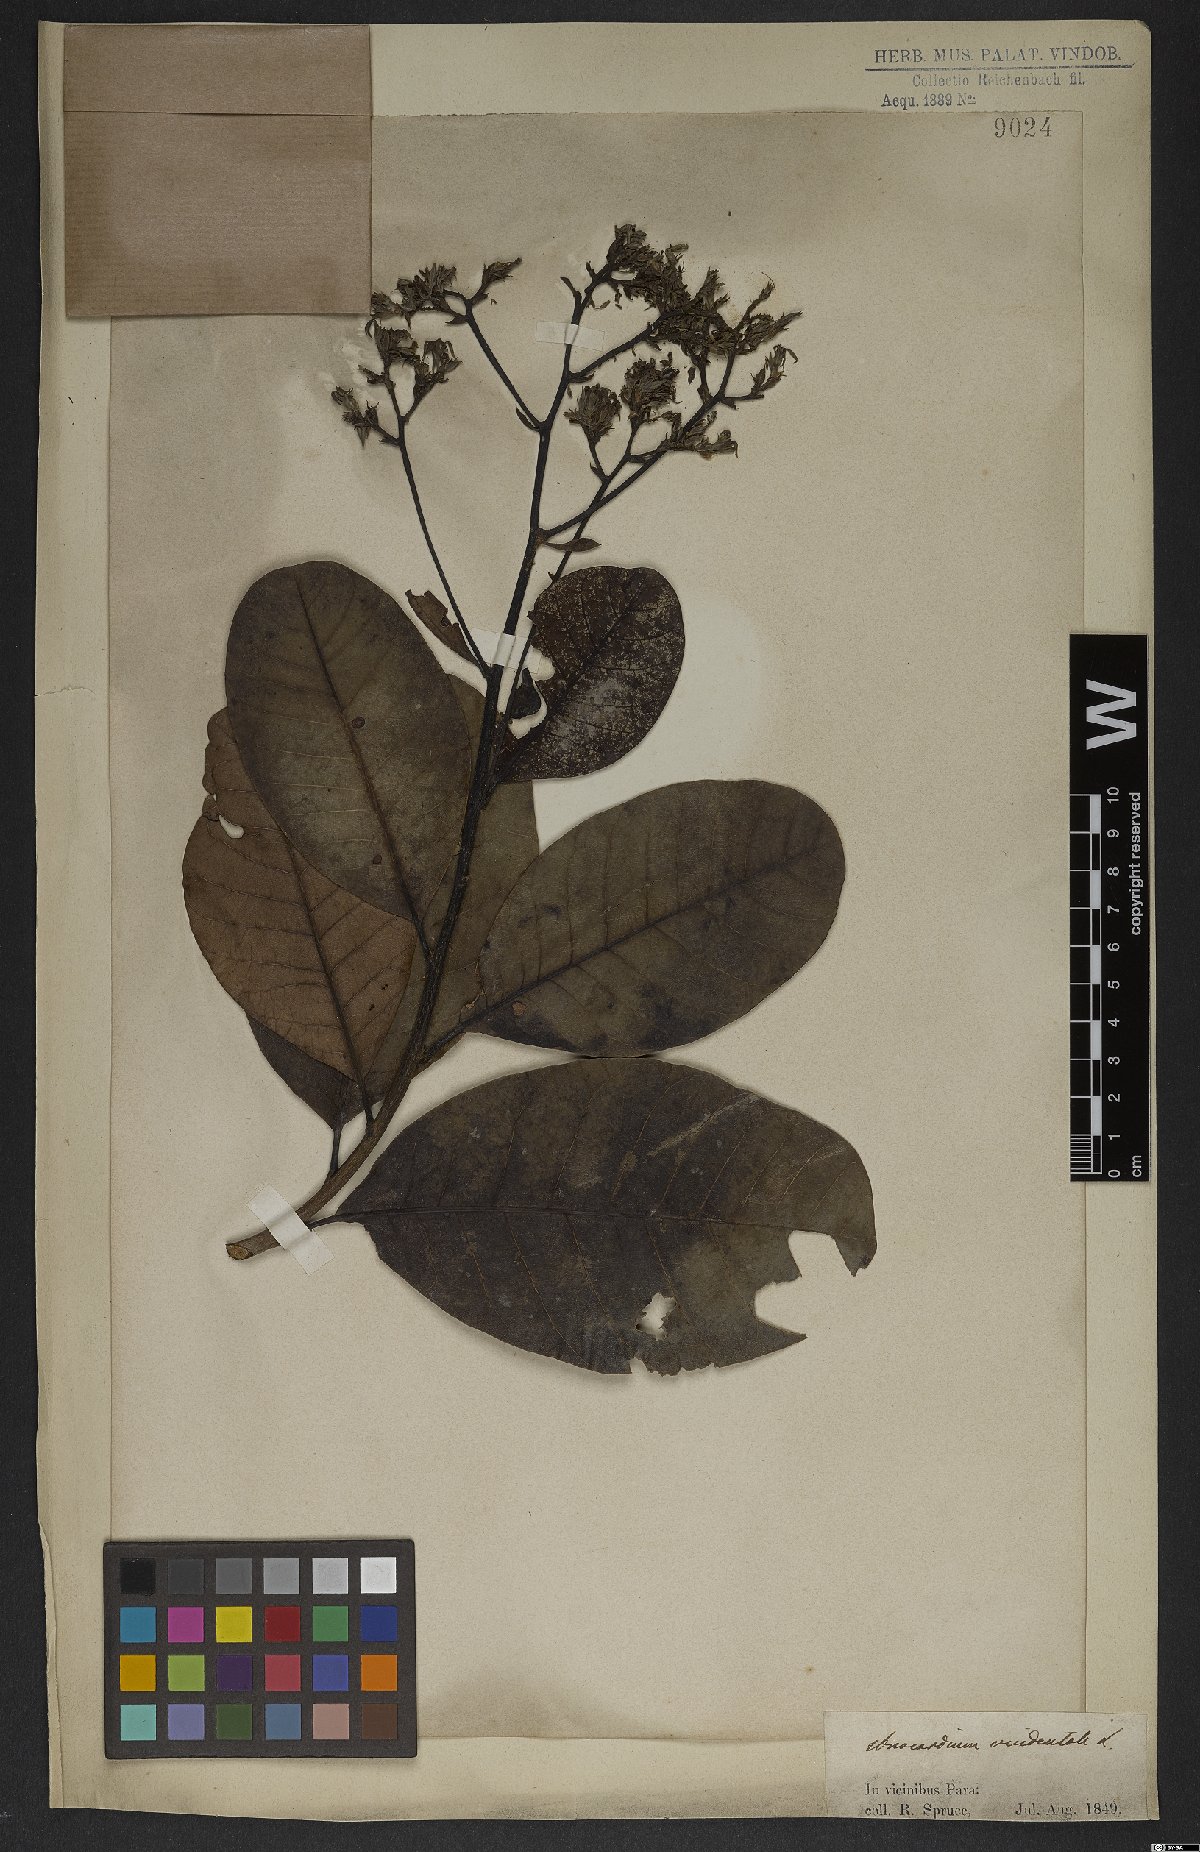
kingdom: Plantae
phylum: Tracheophyta
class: Magnoliopsida
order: Sapindales
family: Anacardiaceae
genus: Anacardium
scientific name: Anacardium occidentale
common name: Cashew
